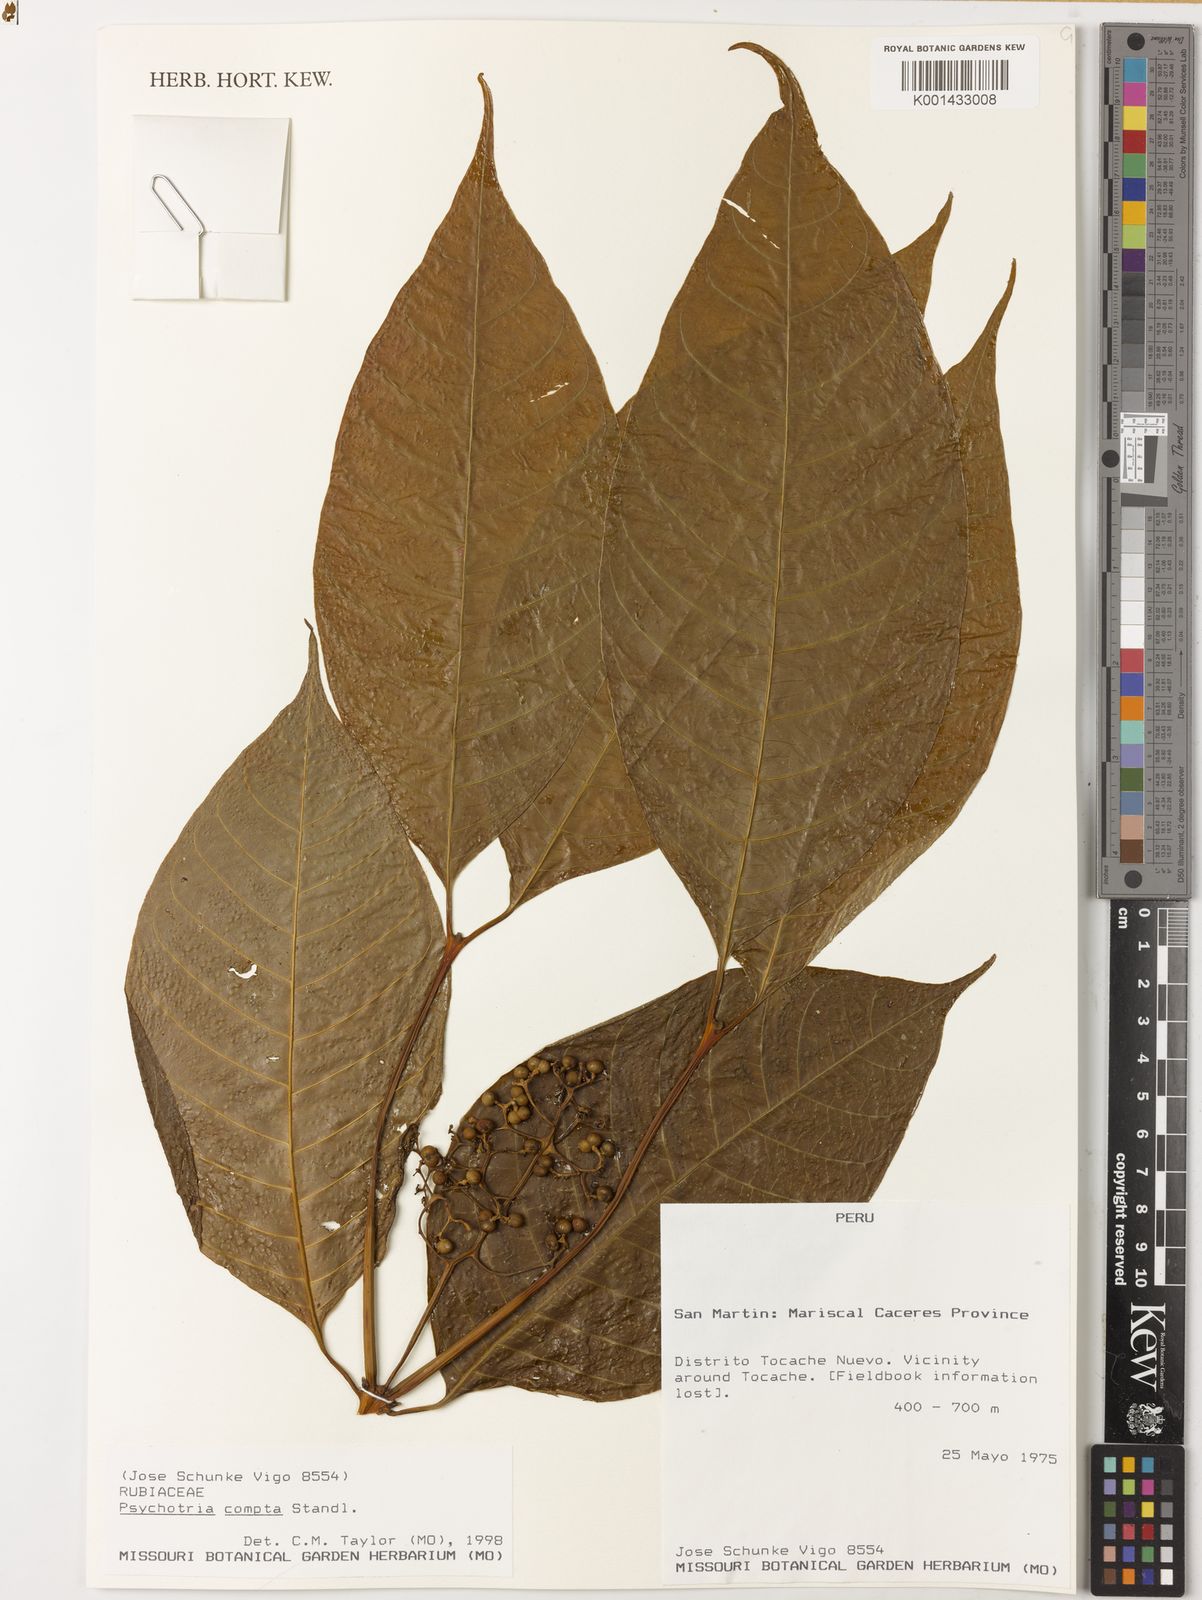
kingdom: Plantae
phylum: Tracheophyta
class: Magnoliopsida
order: Gentianales
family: Rubiaceae
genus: Palicourea
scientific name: Palicourea compta
